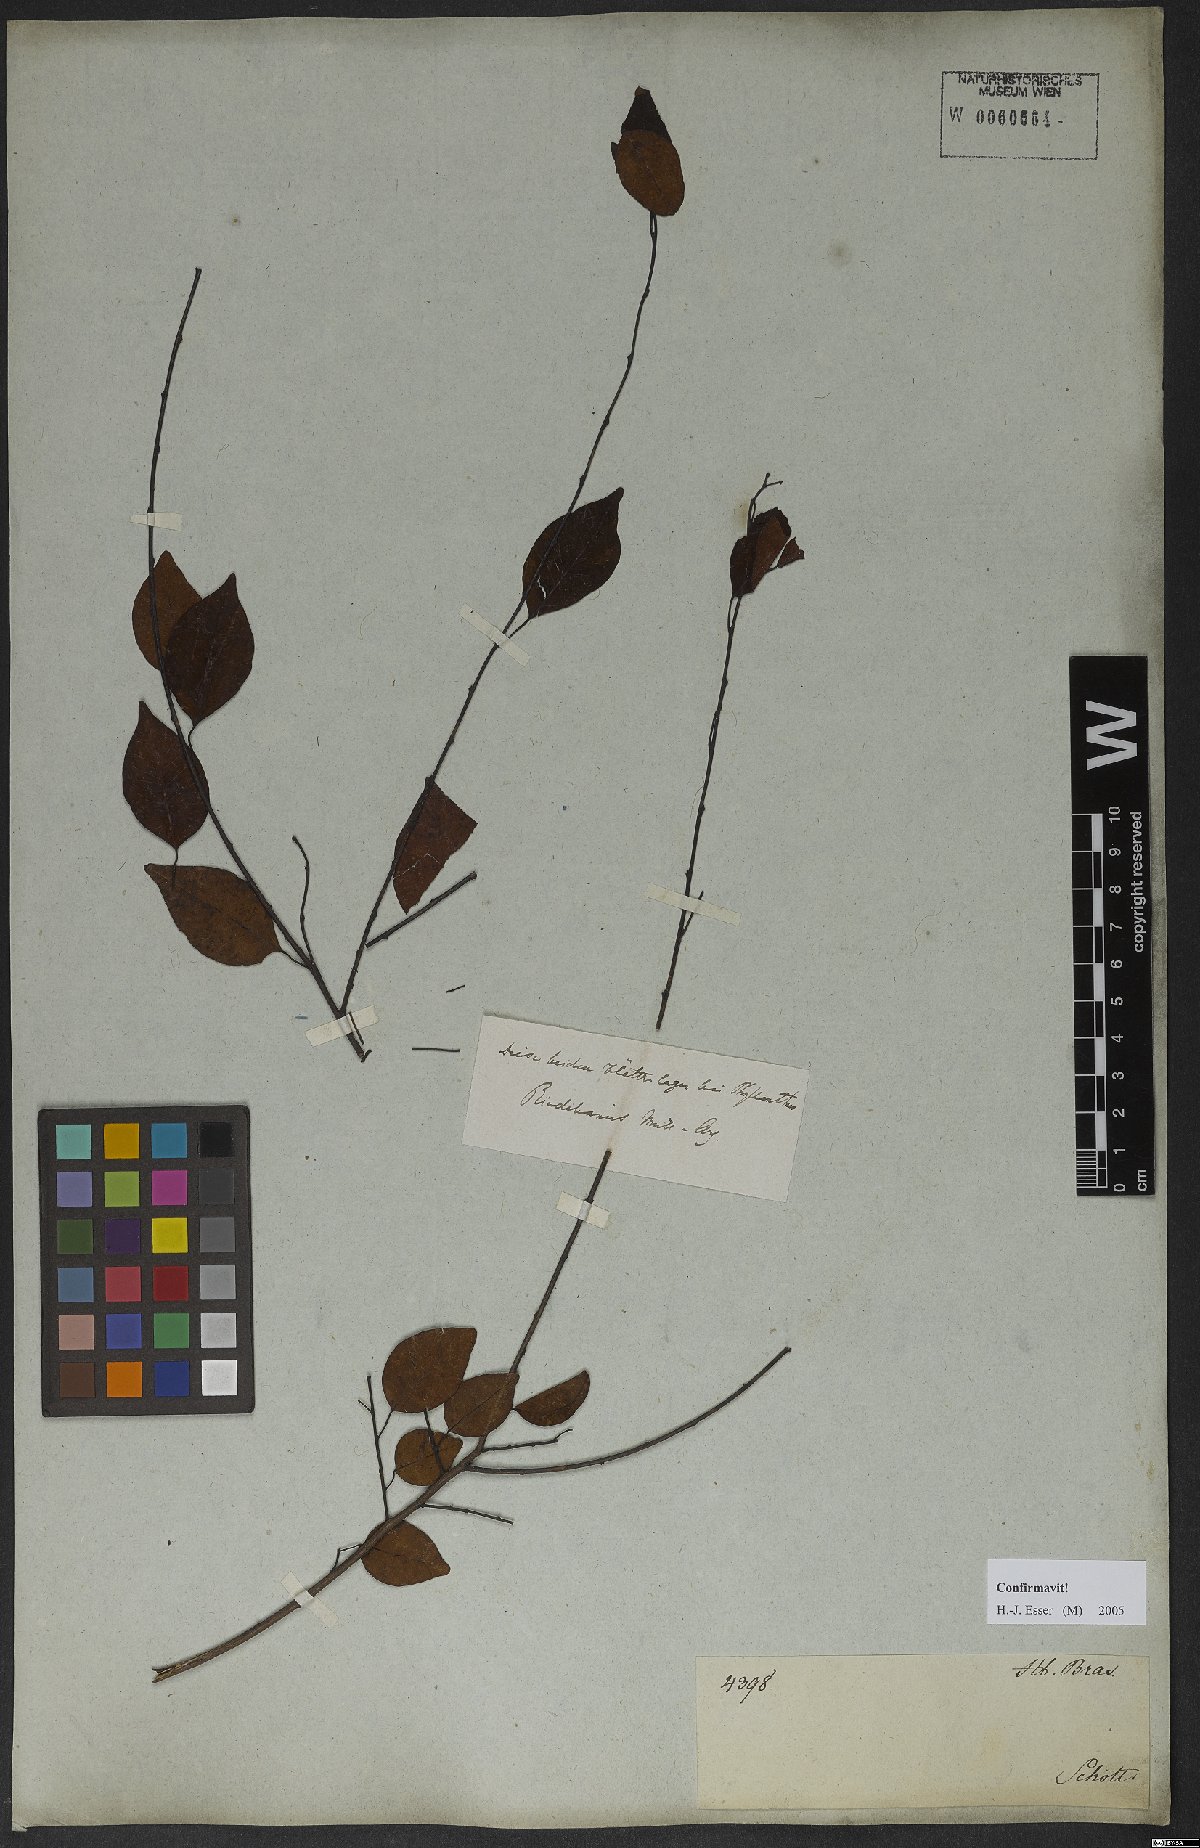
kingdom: Plantae
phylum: Tracheophyta
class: Magnoliopsida
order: Malpighiales
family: Euphorbiaceae
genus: Maprounea
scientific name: Maprounea guianensis
